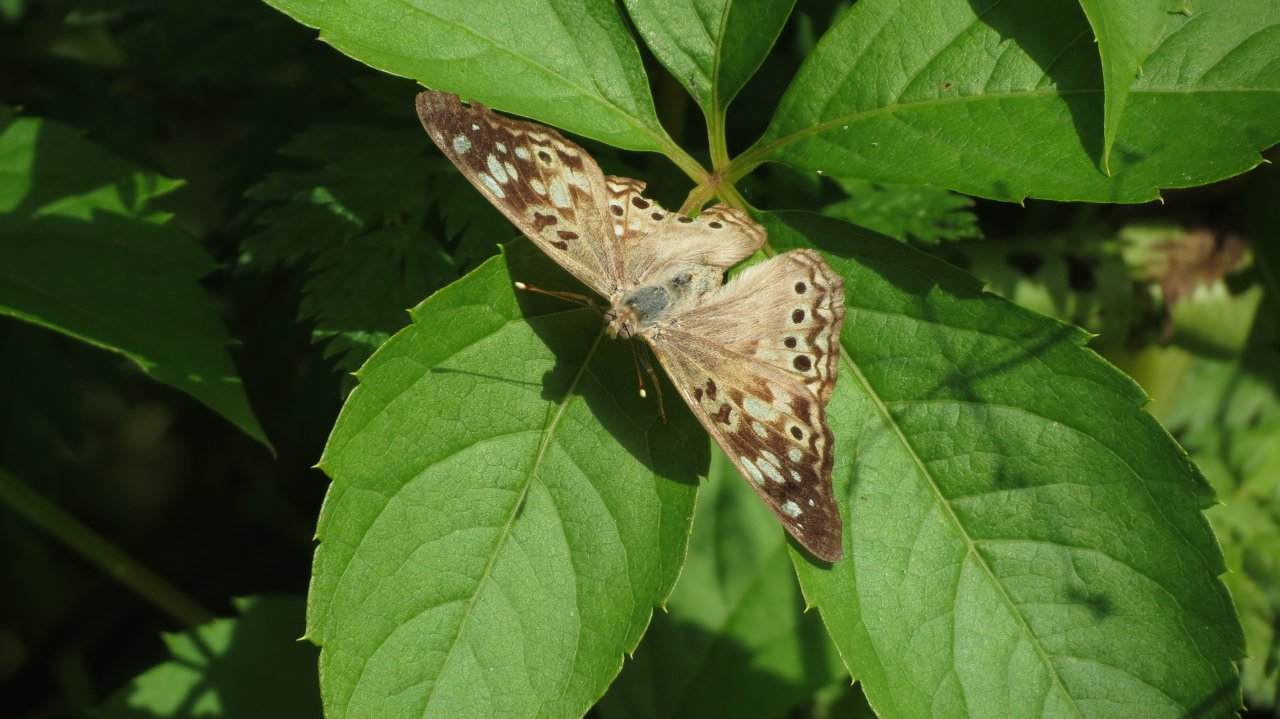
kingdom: Animalia
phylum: Arthropoda
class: Insecta
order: Lepidoptera
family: Nymphalidae
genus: Asterocampa
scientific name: Asterocampa celtis
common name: Hackberry Emperor
